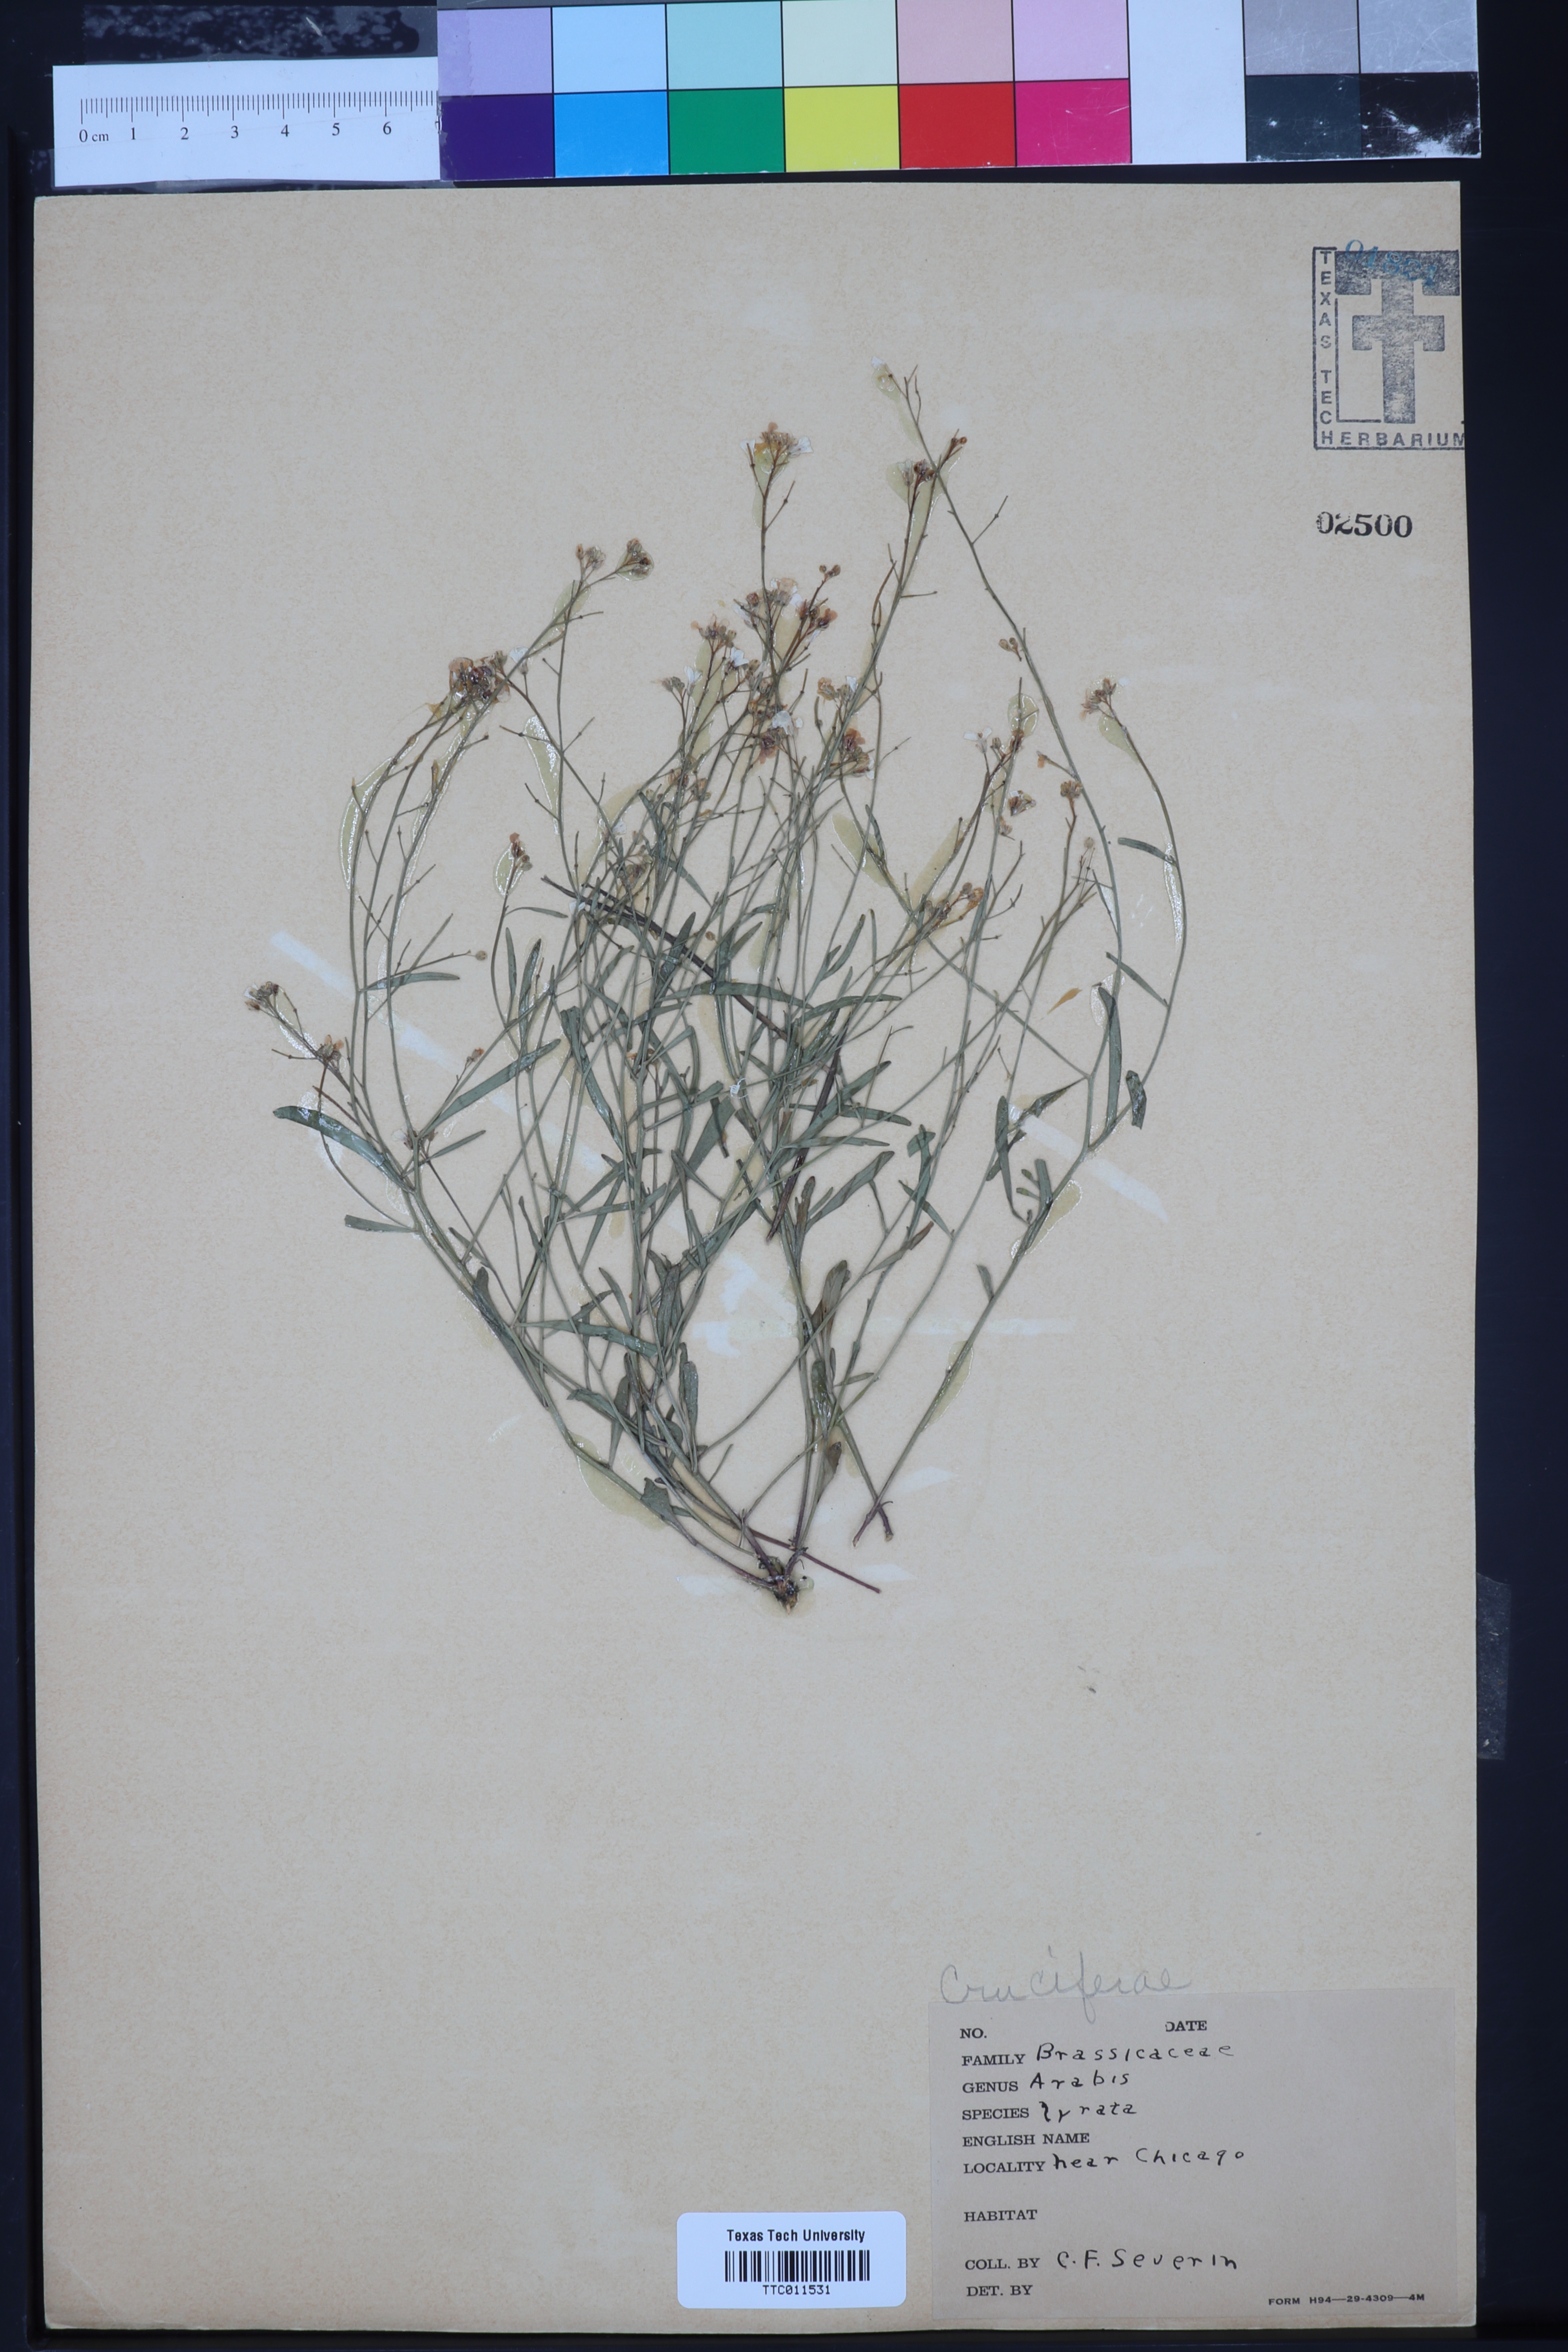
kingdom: Plantae
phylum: Tracheophyta
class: Magnoliopsida
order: Brassicales
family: Brassicaceae
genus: Arabidopsis
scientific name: Arabidopsis lyrata
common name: Lyrate rockcress
